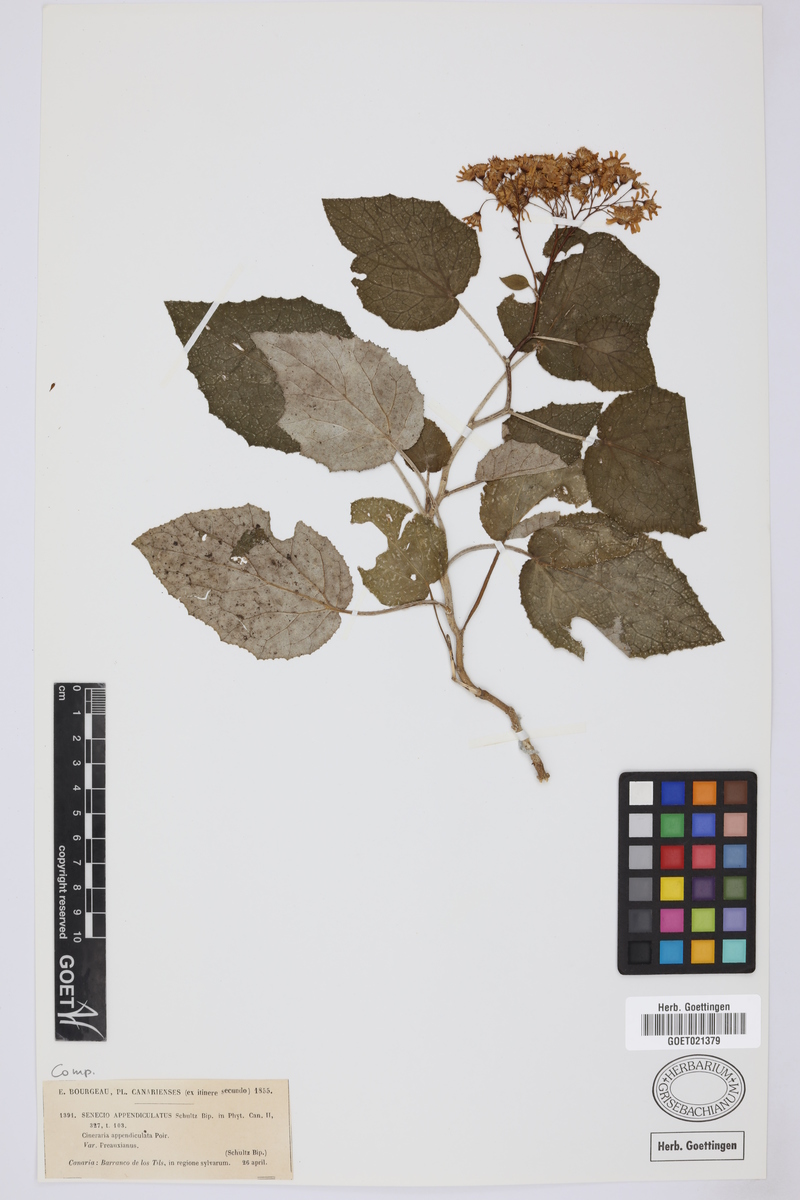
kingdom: Plantae
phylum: Tracheophyta
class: Magnoliopsida
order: Asterales
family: Asteraceae
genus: Senecio
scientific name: Senecio appendiculatus
